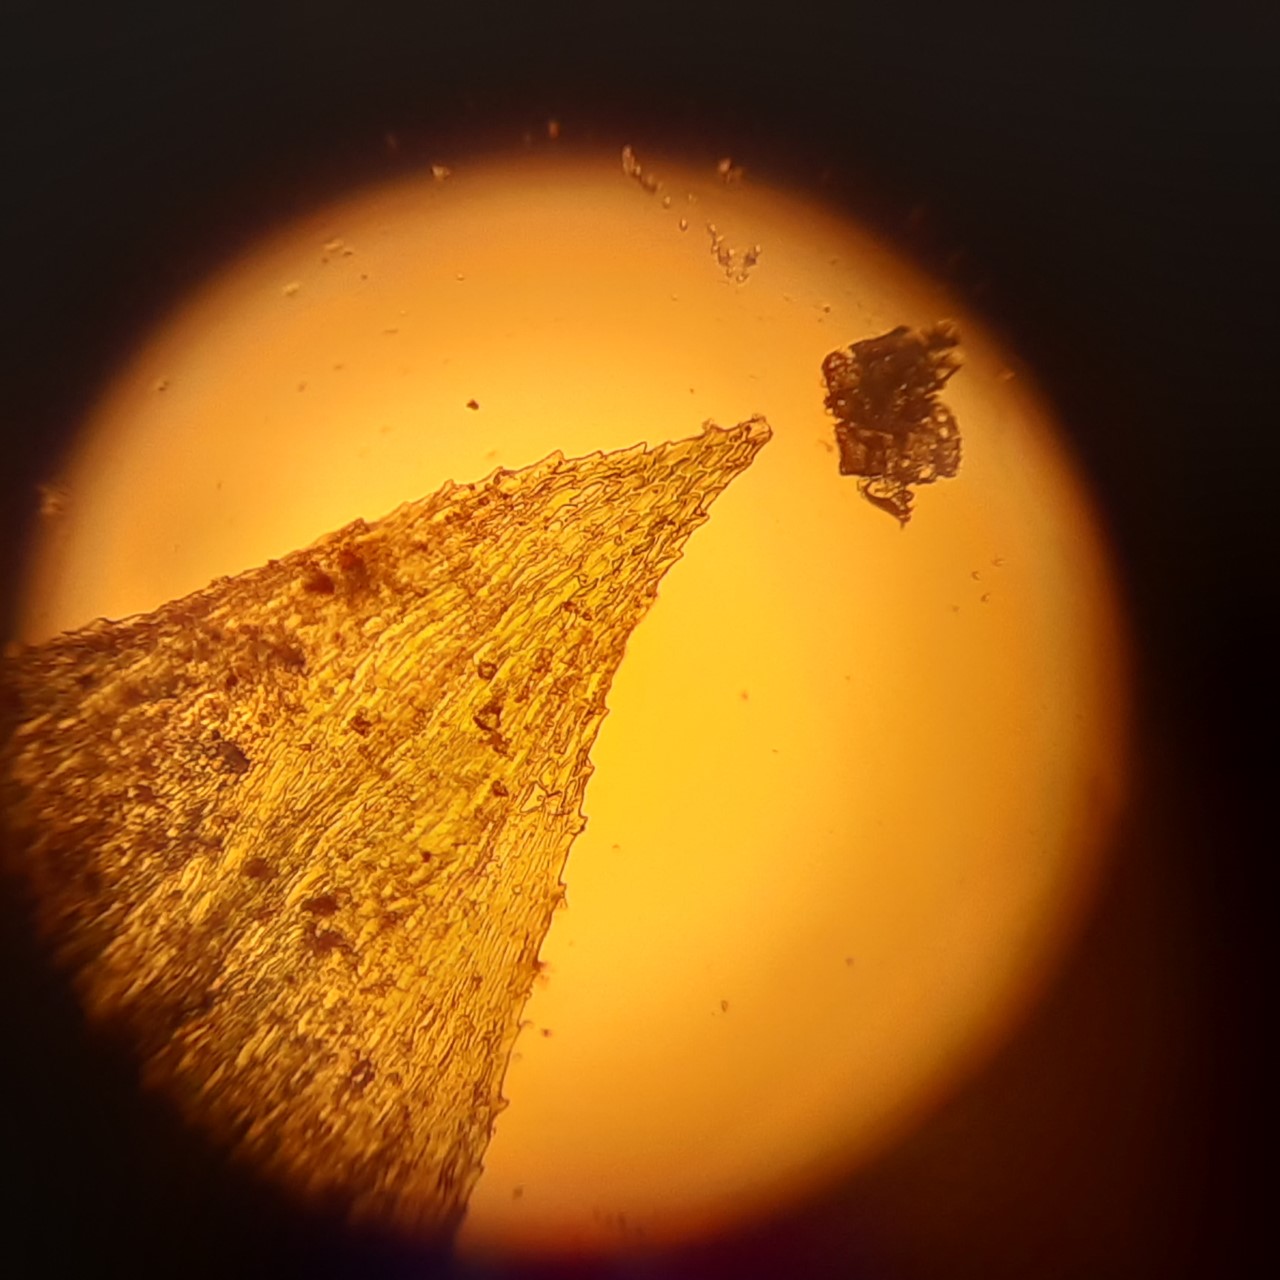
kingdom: Plantae
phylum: Bryophyta
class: Bryopsida
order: Hypnales
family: Brachytheciaceae
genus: Oxyrrhynchium
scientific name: Oxyrrhynchium hians
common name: Ler-vortetand
